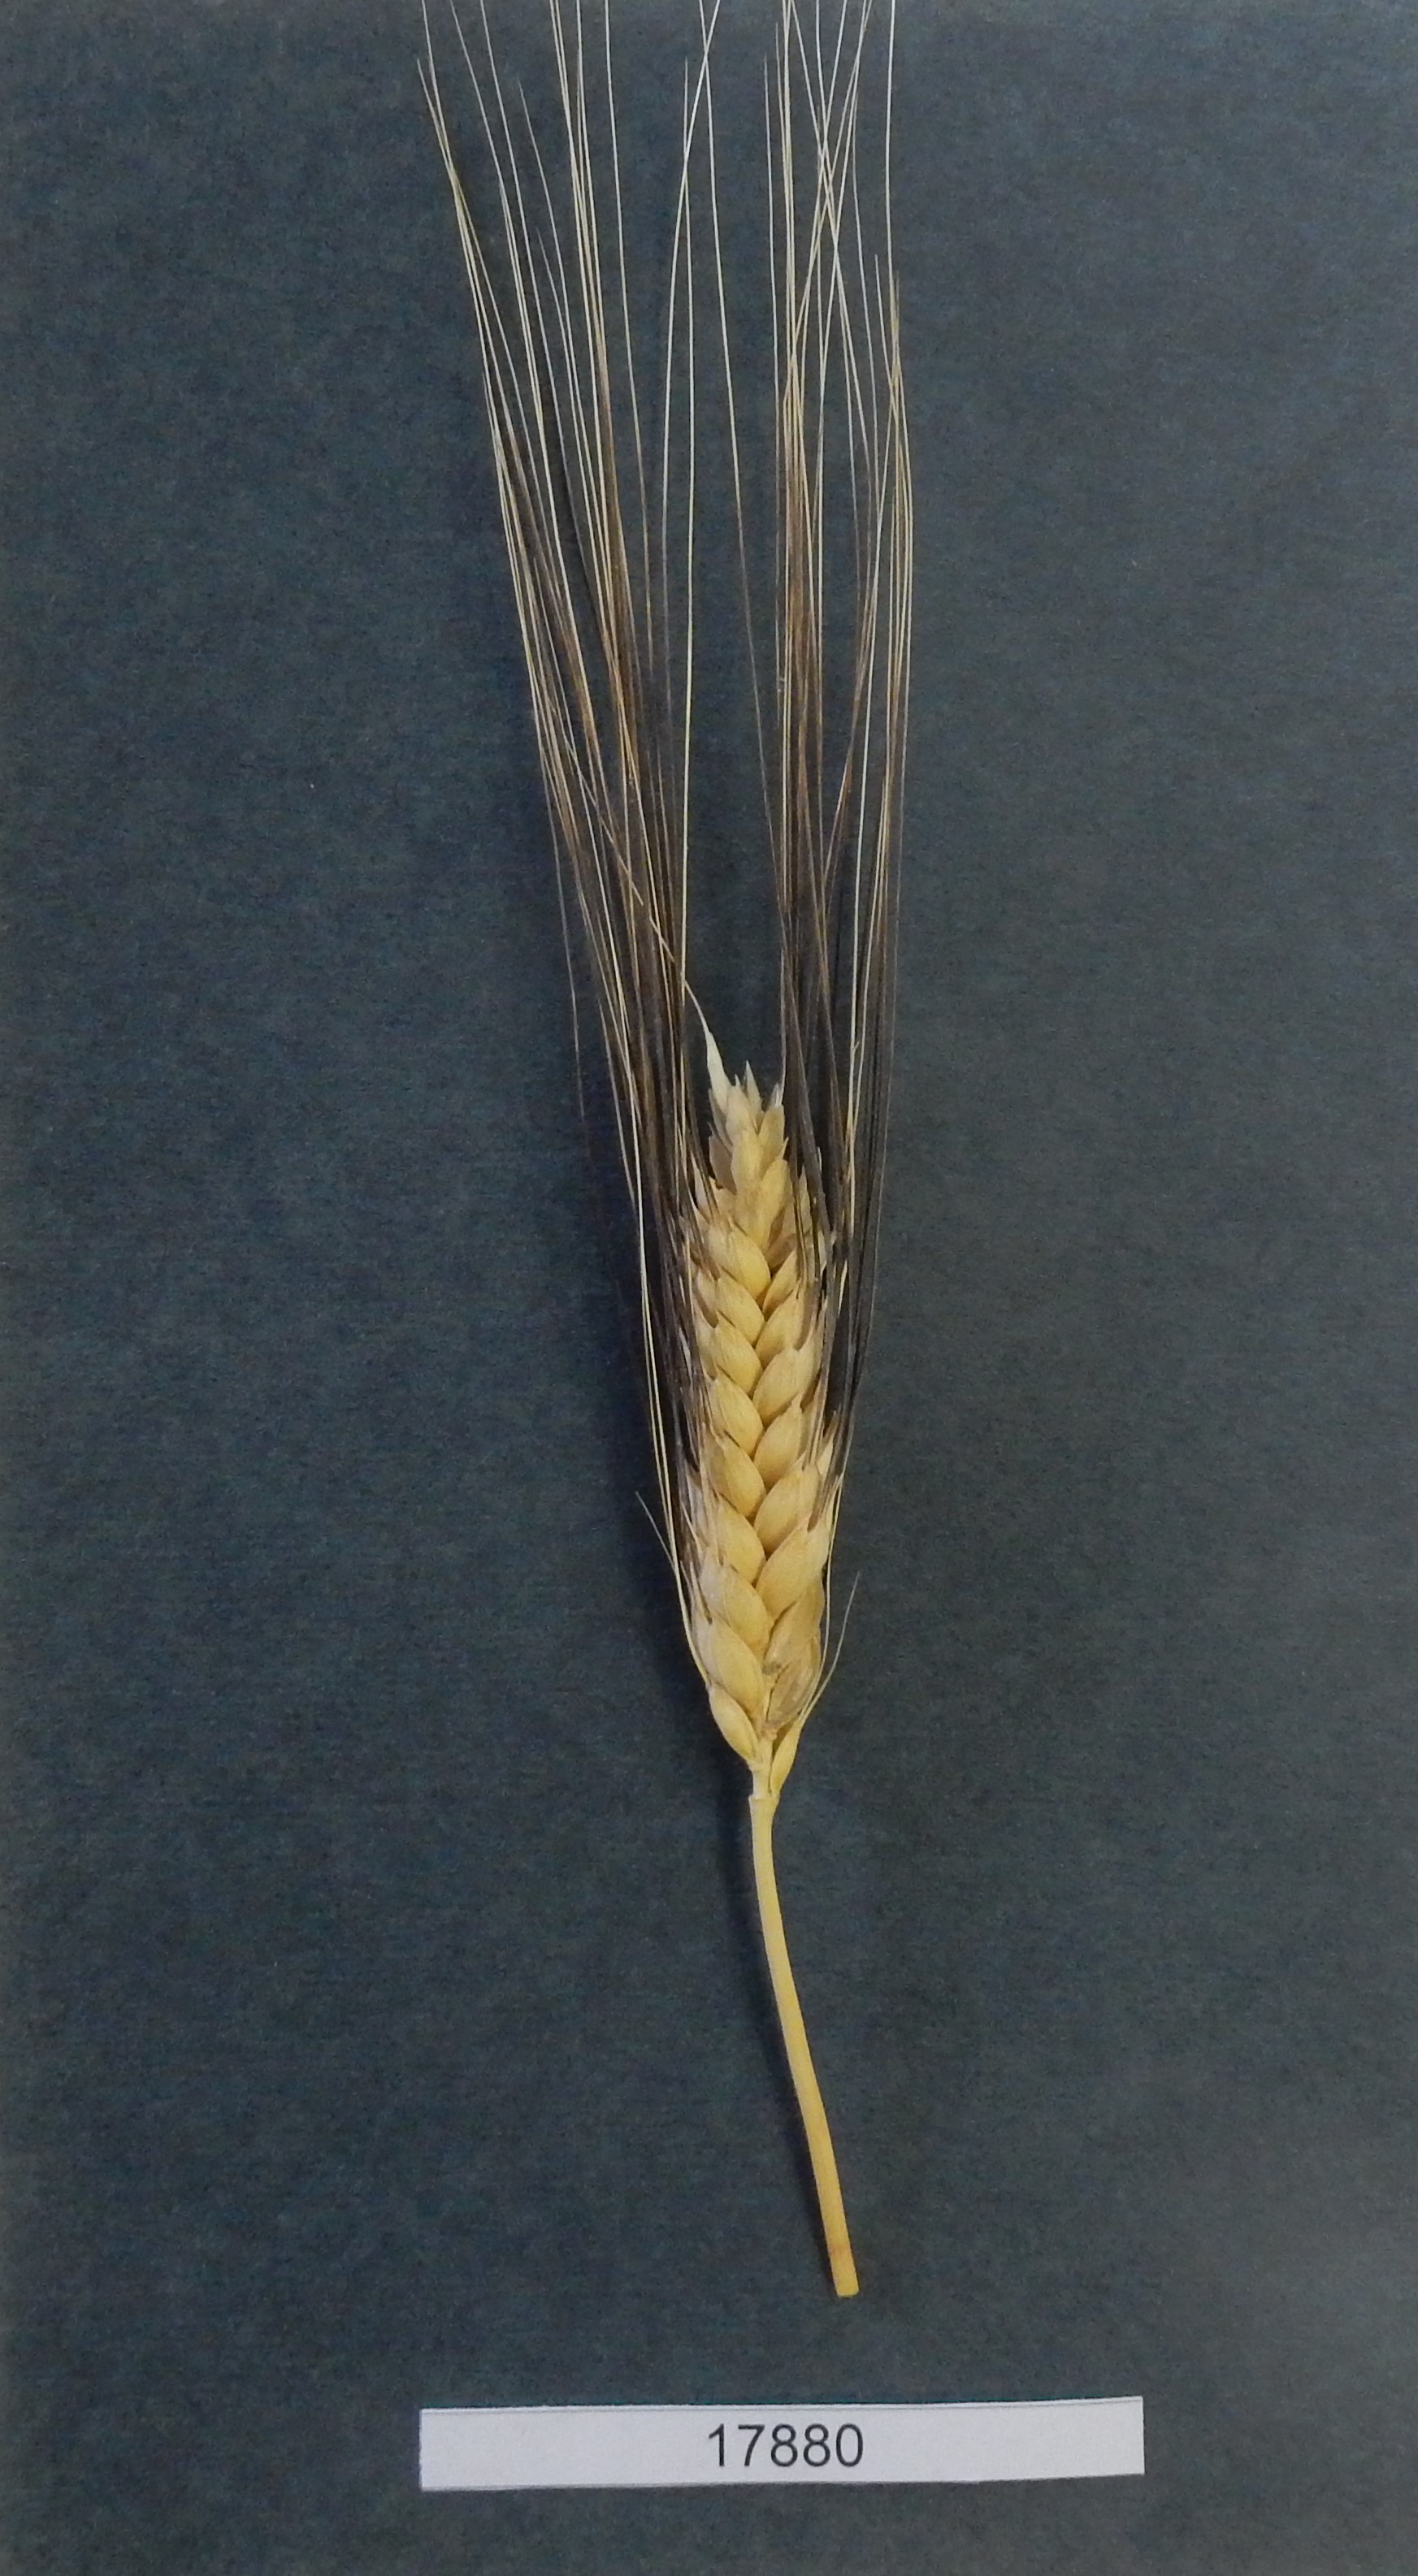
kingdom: Plantae
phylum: Tracheophyta
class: Liliopsida
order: Poales
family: Poaceae
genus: Triticum
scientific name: Triticum turgidum
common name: Wheat
